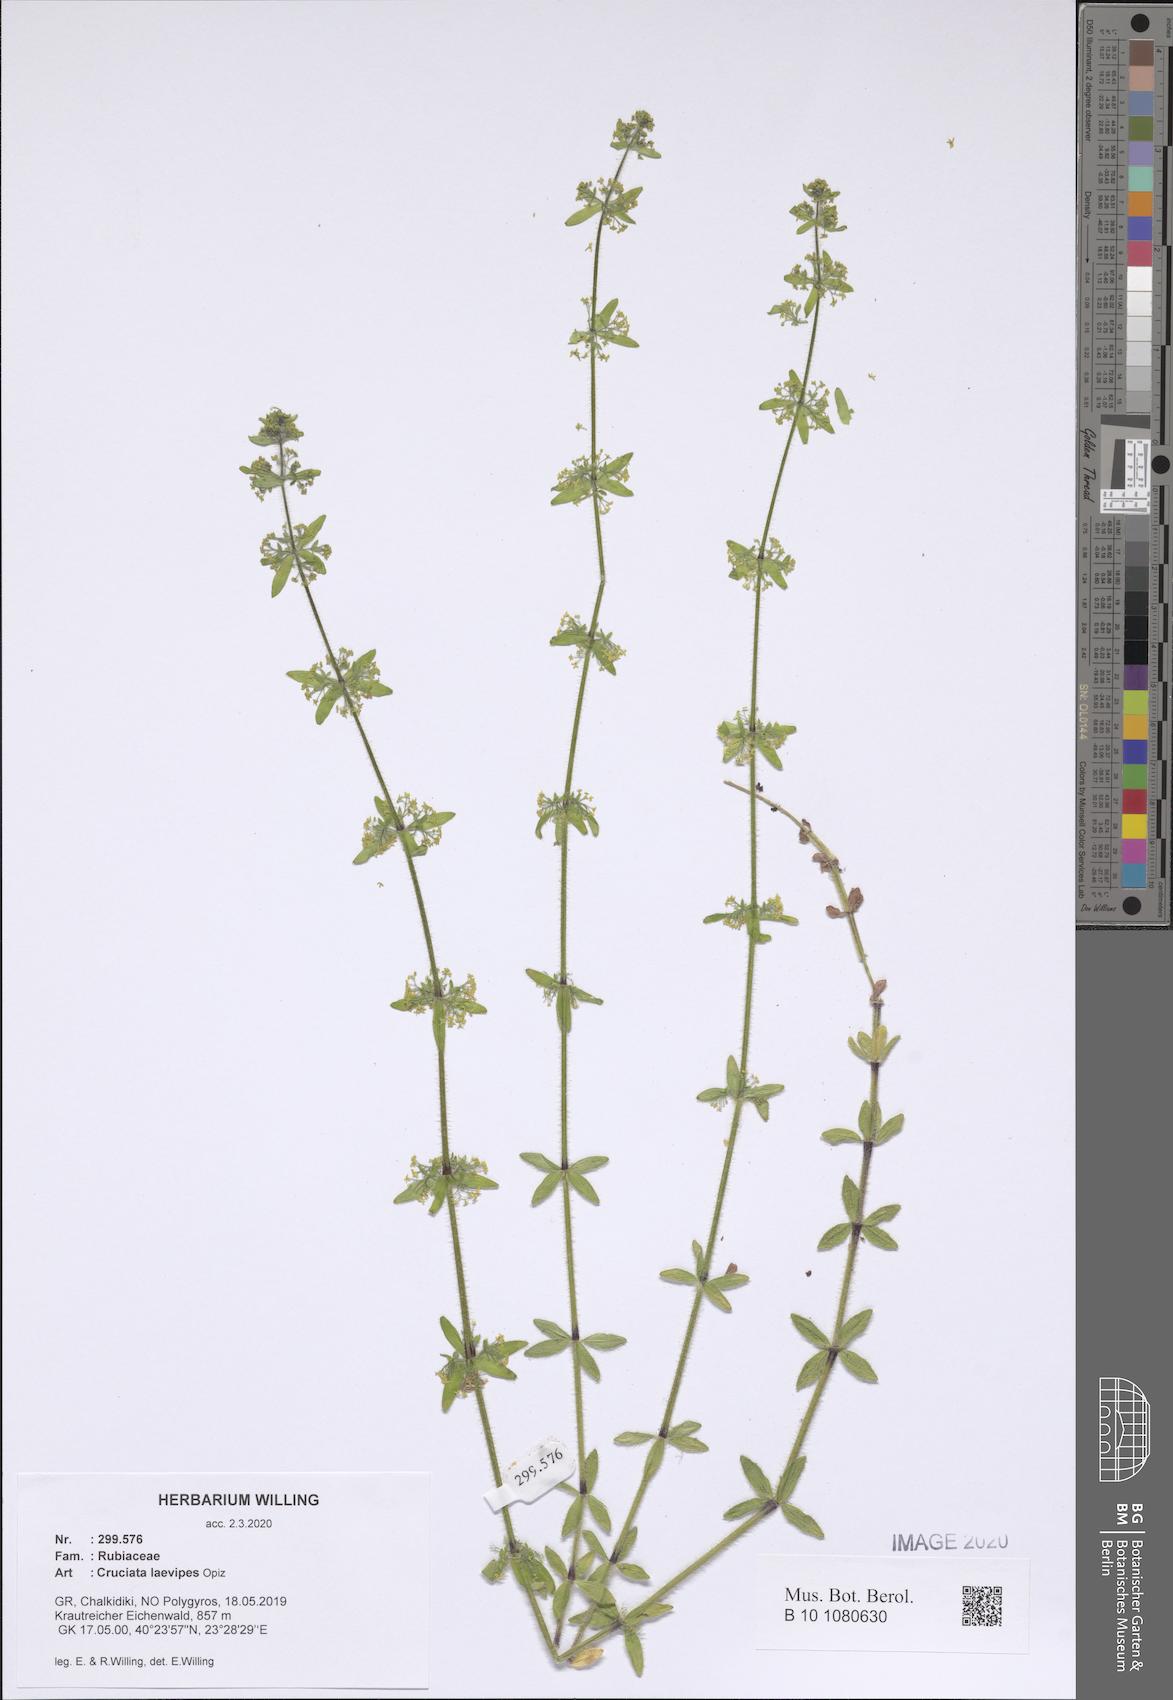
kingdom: Plantae
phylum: Tracheophyta
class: Magnoliopsida
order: Gentianales
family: Rubiaceae
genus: Cruciata
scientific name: Cruciata laevipes
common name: Crosswort
